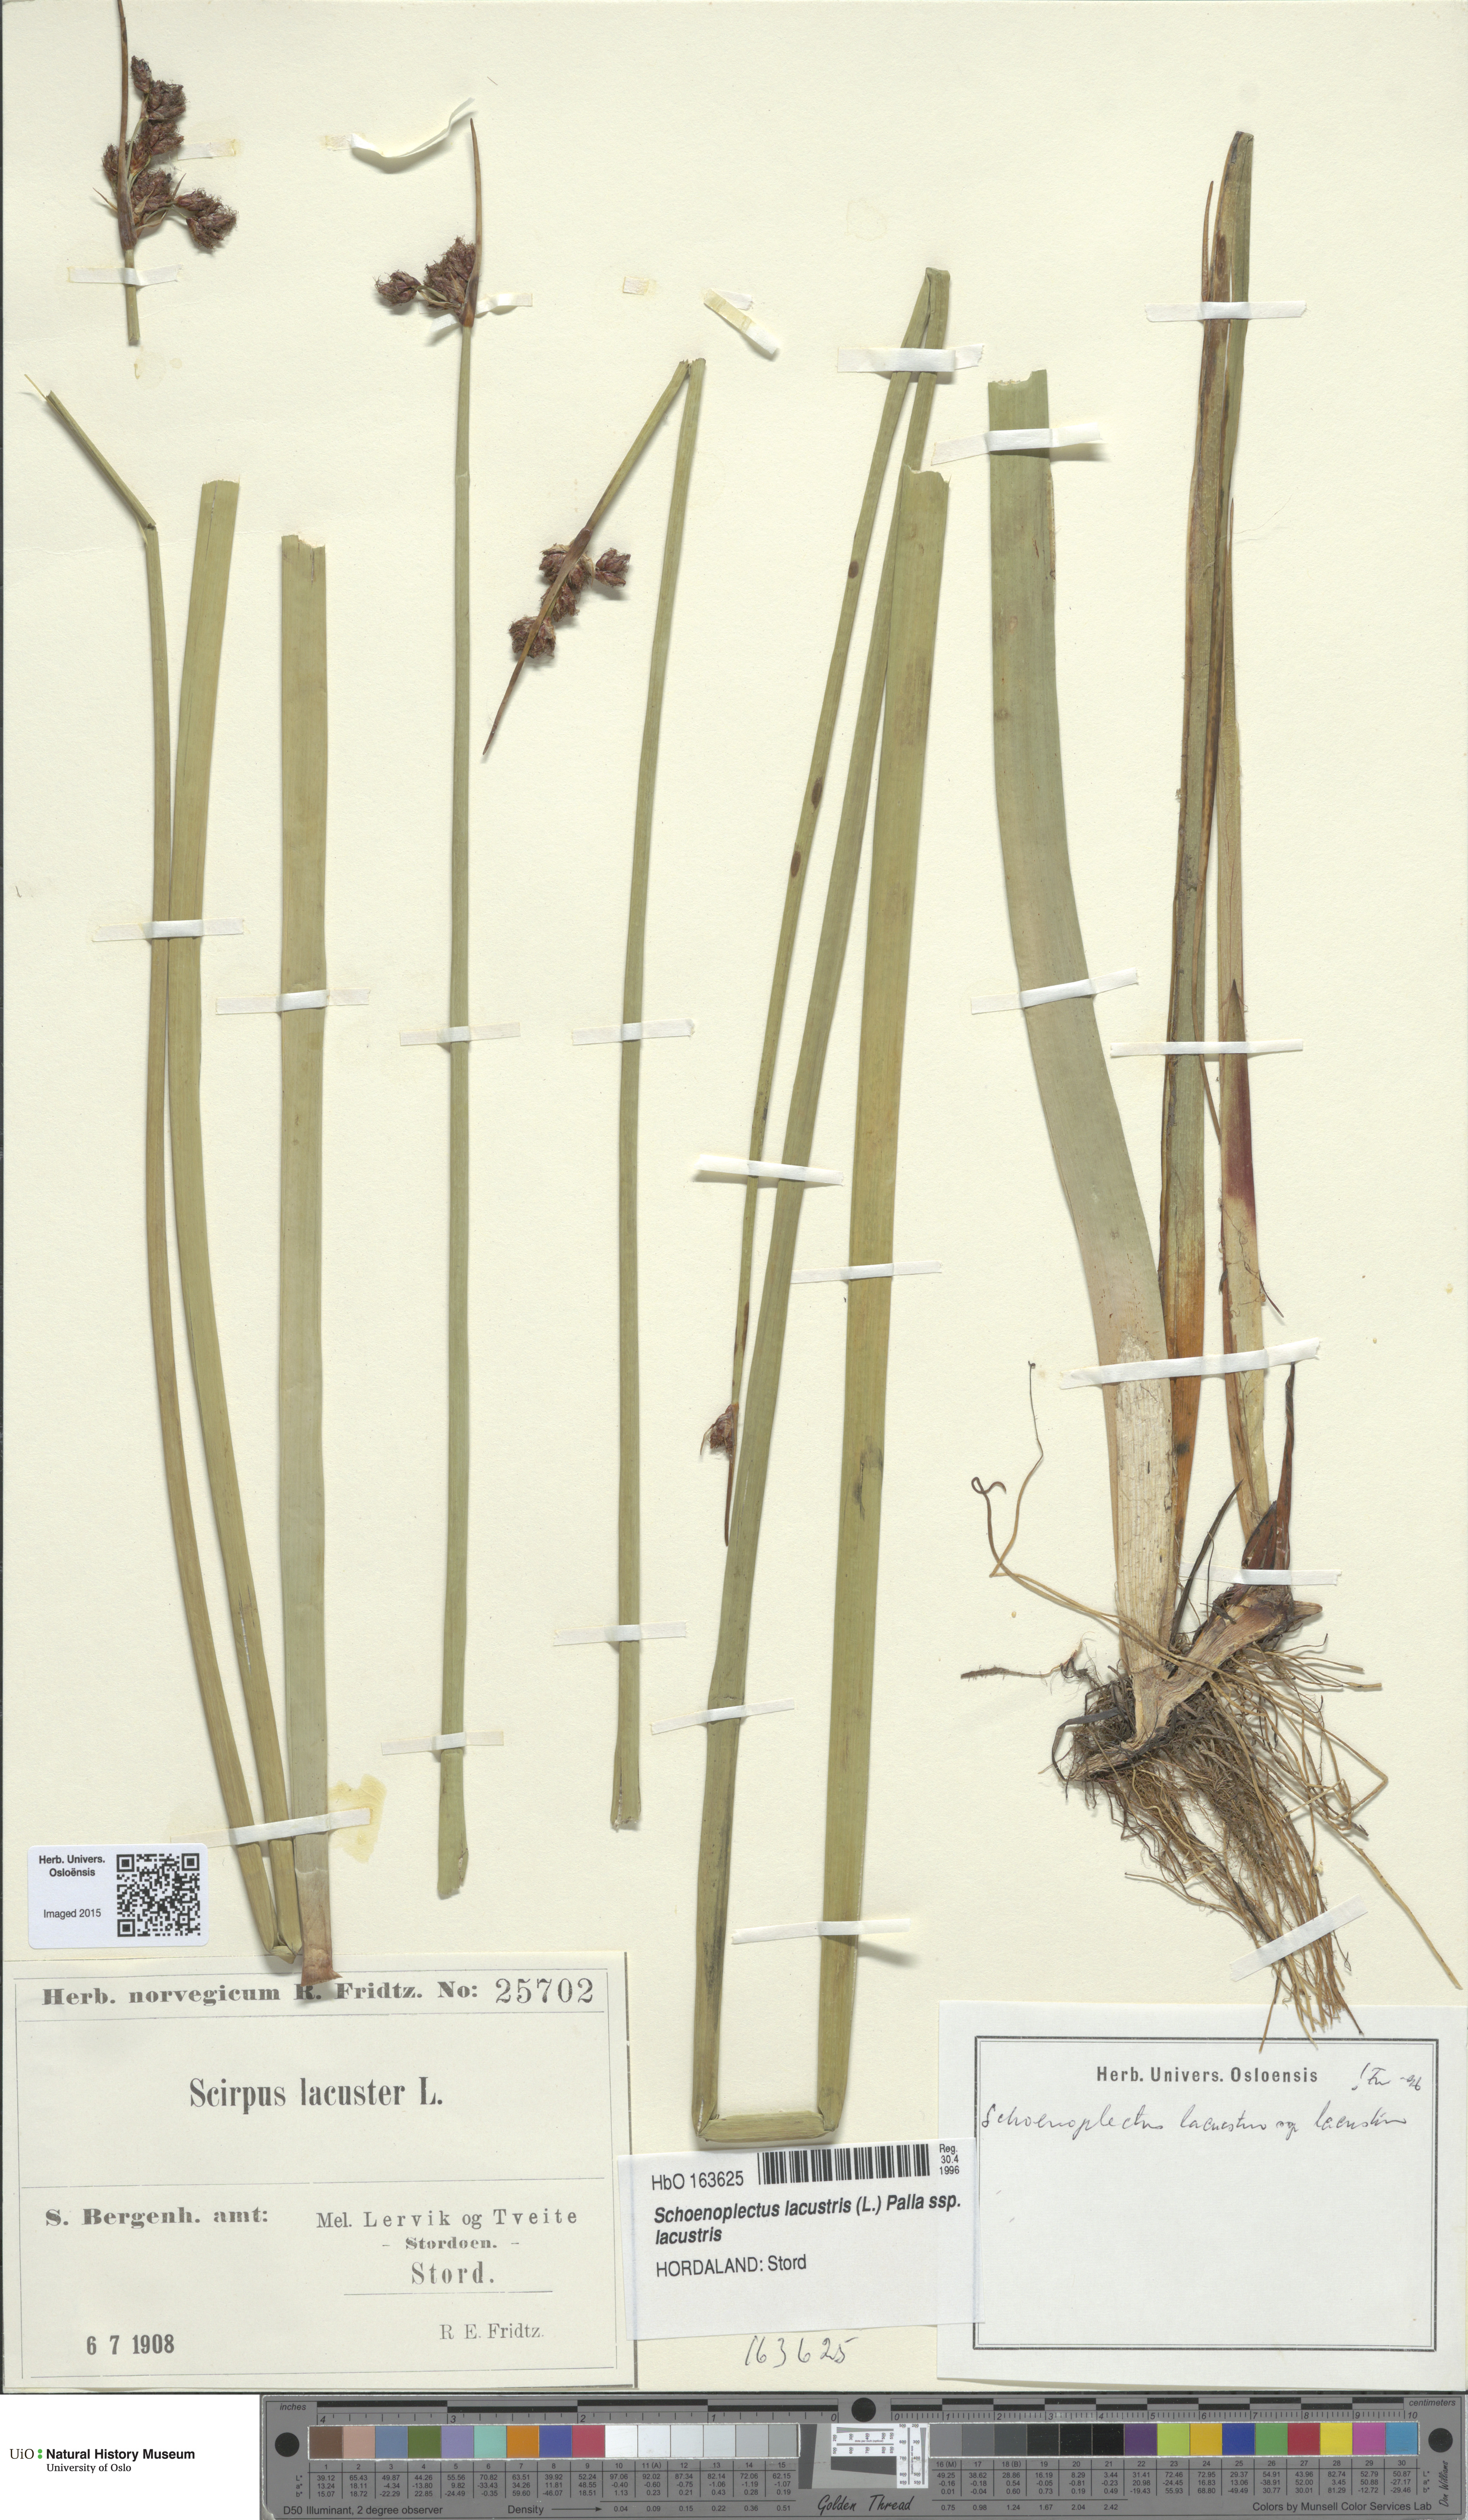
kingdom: Plantae
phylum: Tracheophyta
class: Liliopsida
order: Poales
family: Cyperaceae
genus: Schoenoplectus
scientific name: Schoenoplectus lacustris
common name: Common club-rush
